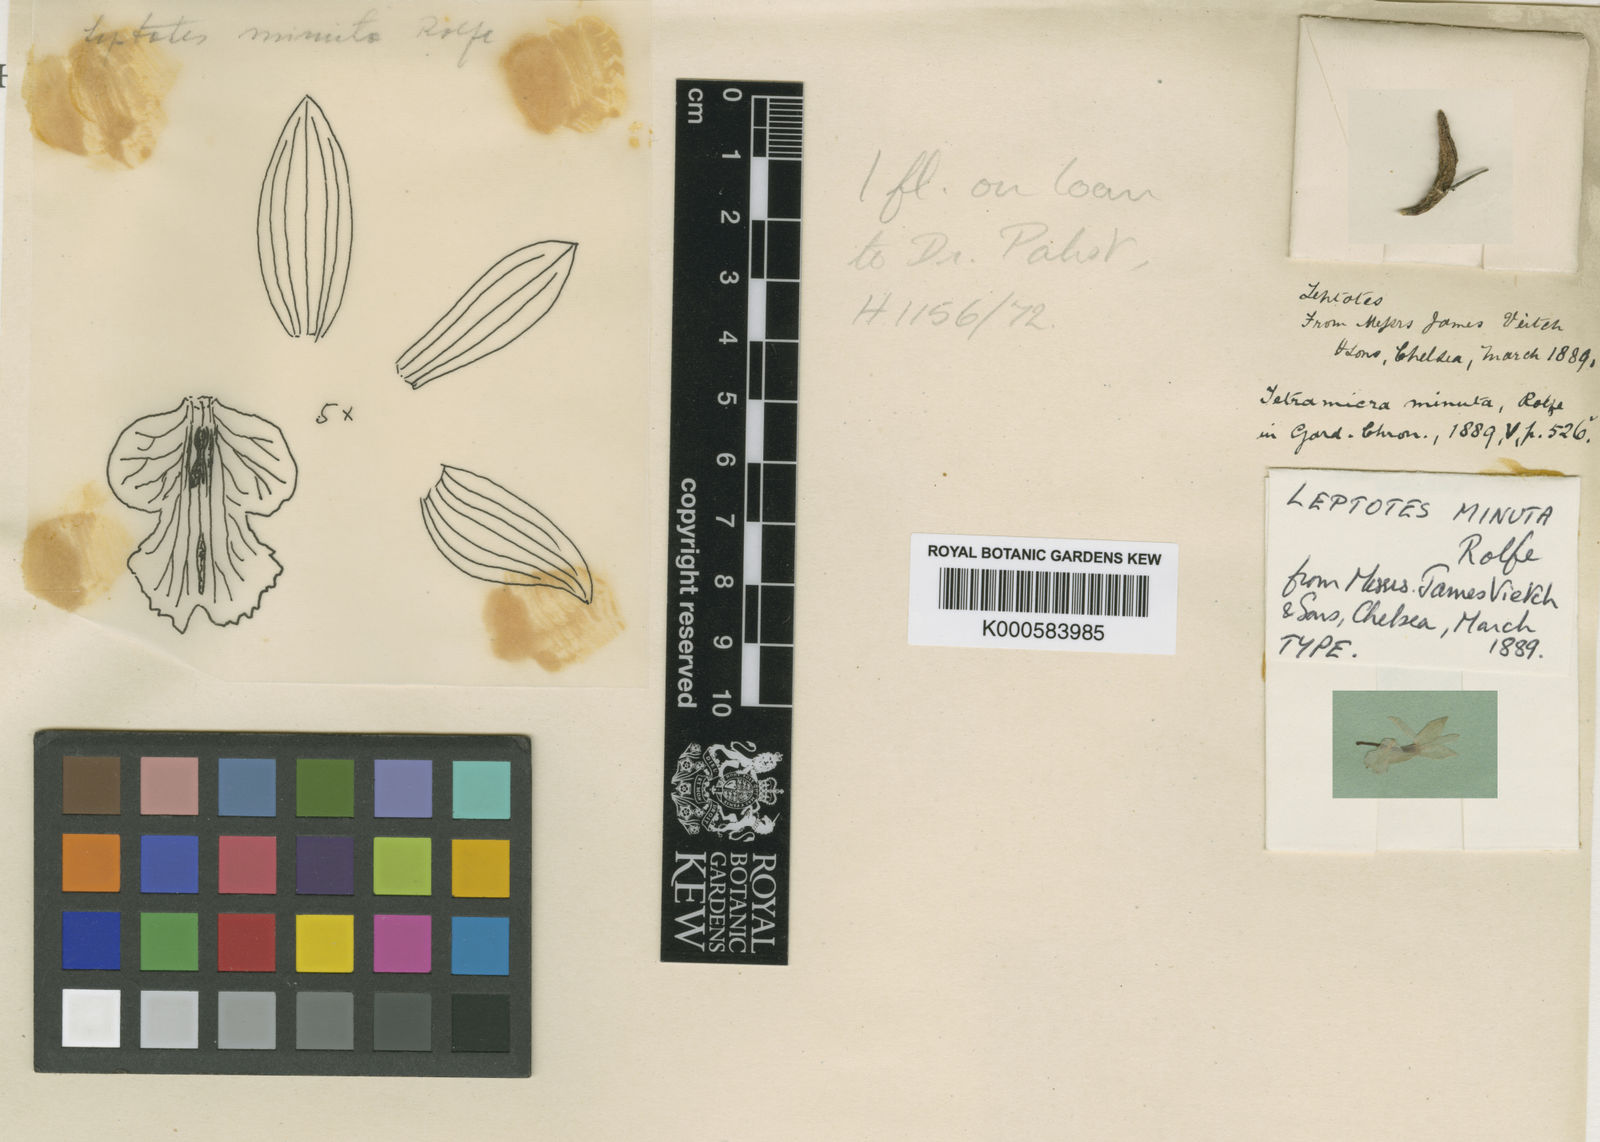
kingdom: Plantae
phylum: Tracheophyta
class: Liliopsida
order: Asparagales
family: Orchidaceae
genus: Leptotes
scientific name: Leptotes tenuis
